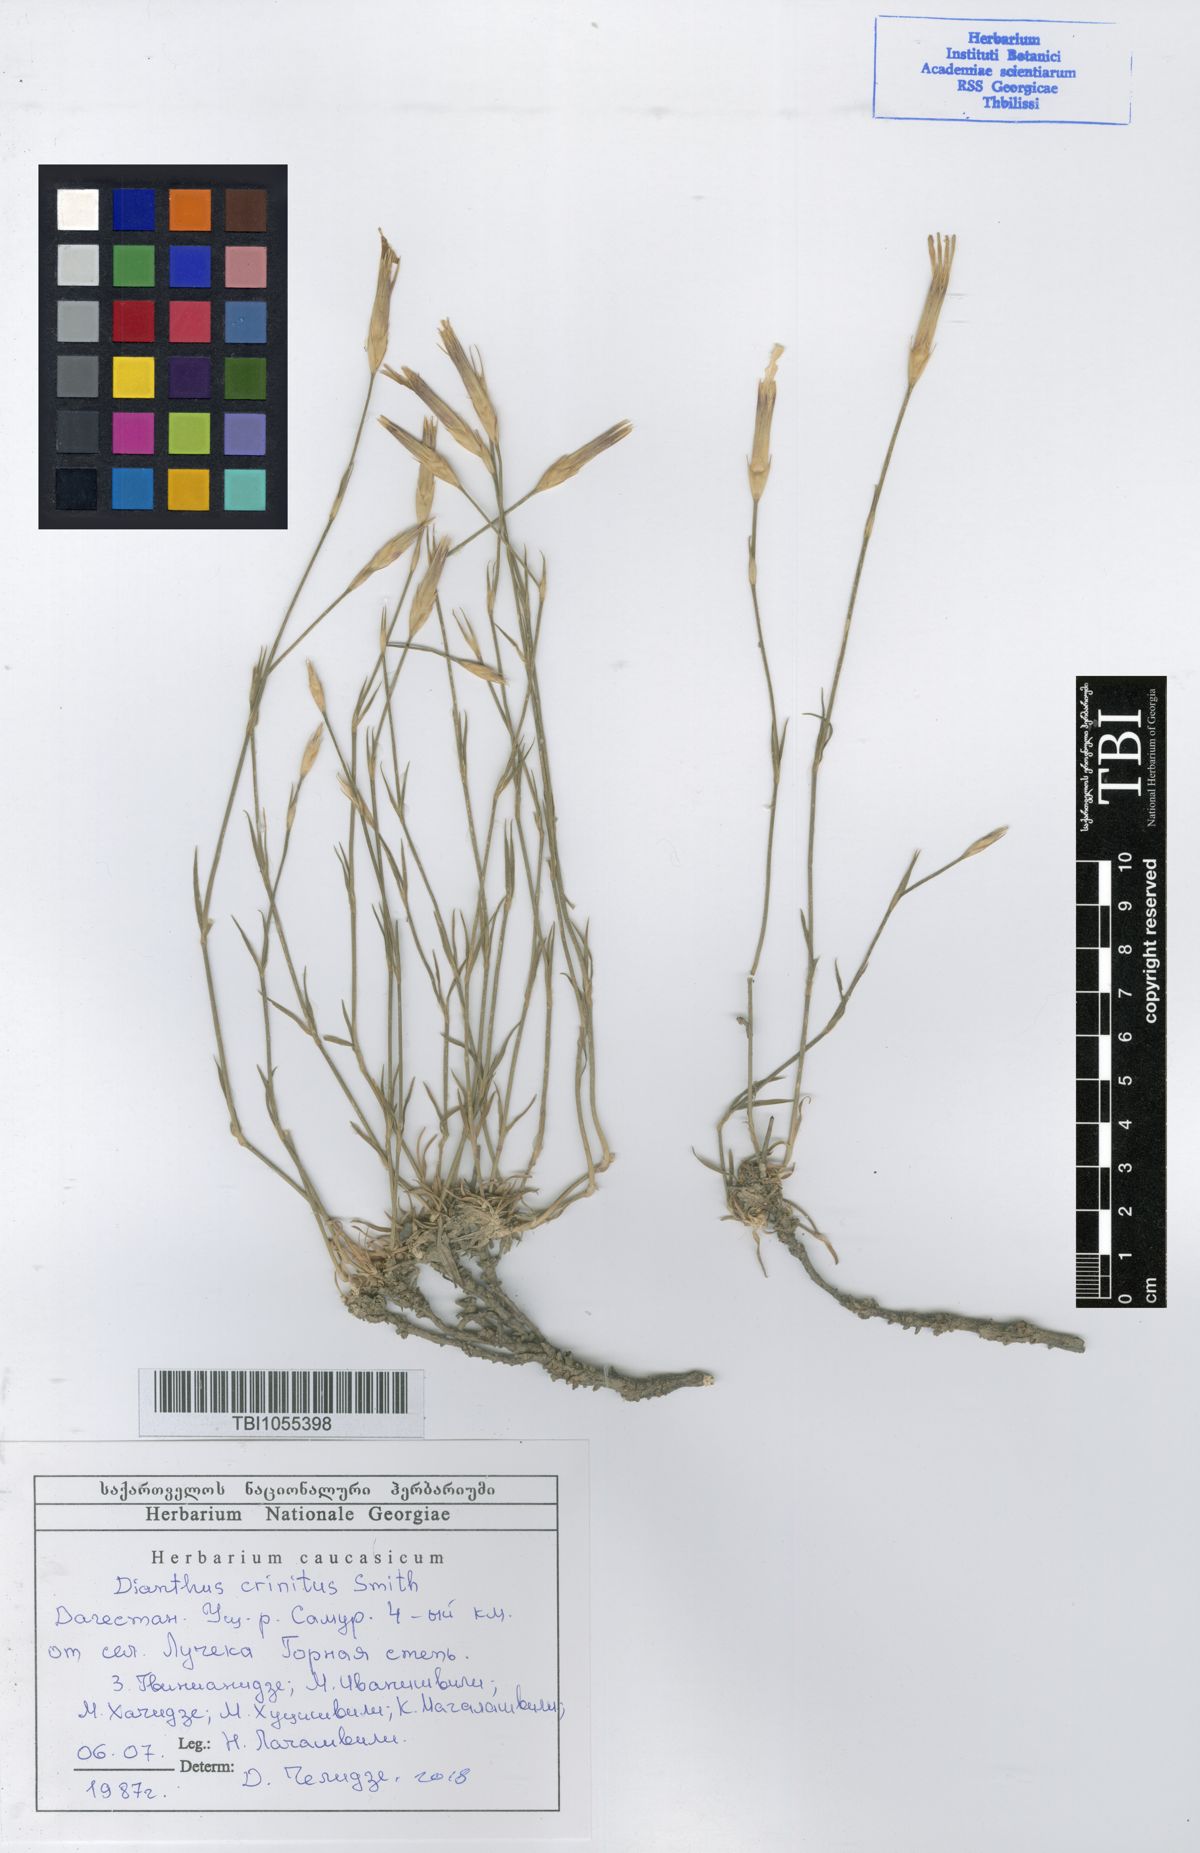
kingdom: Plantae
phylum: Tracheophyta
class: Magnoliopsida
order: Caryophyllales
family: Caryophyllaceae
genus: Dianthus
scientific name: Dianthus crinitus
